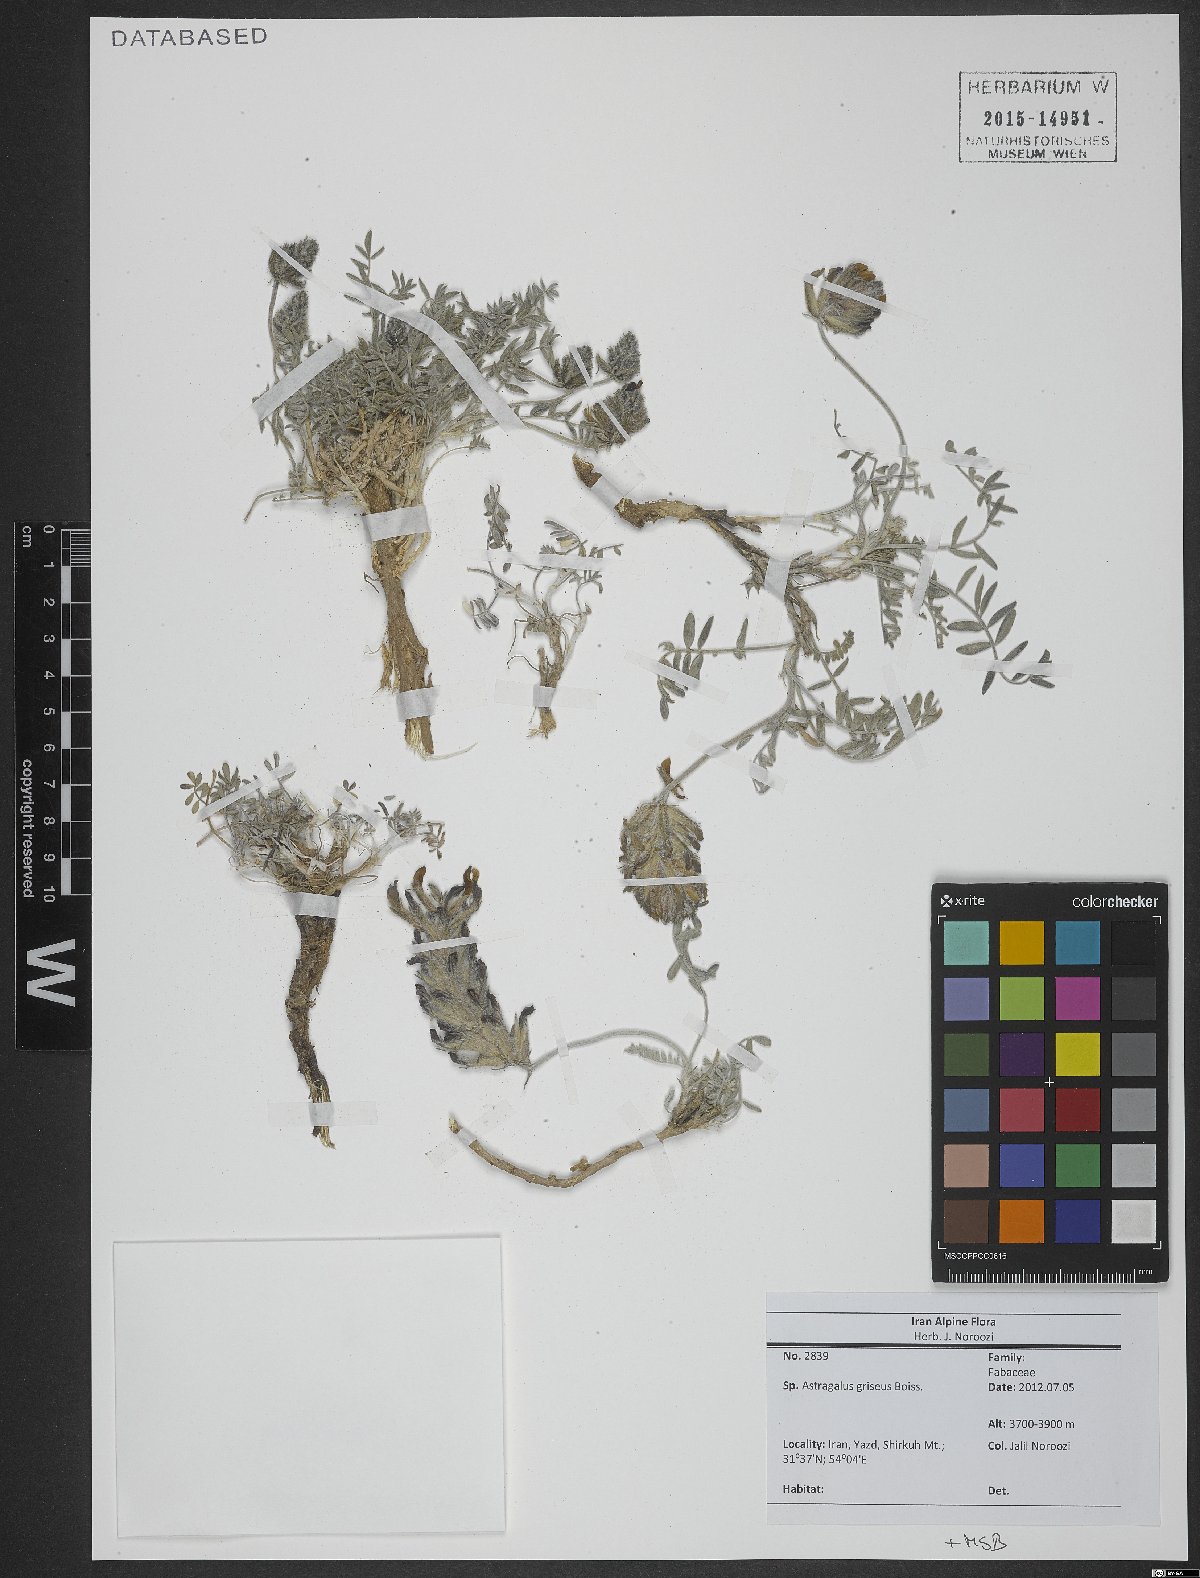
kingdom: Plantae
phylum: Tracheophyta
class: Magnoliopsida
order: Fabales
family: Fabaceae
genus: Astragalus
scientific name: Astragalus griseus
